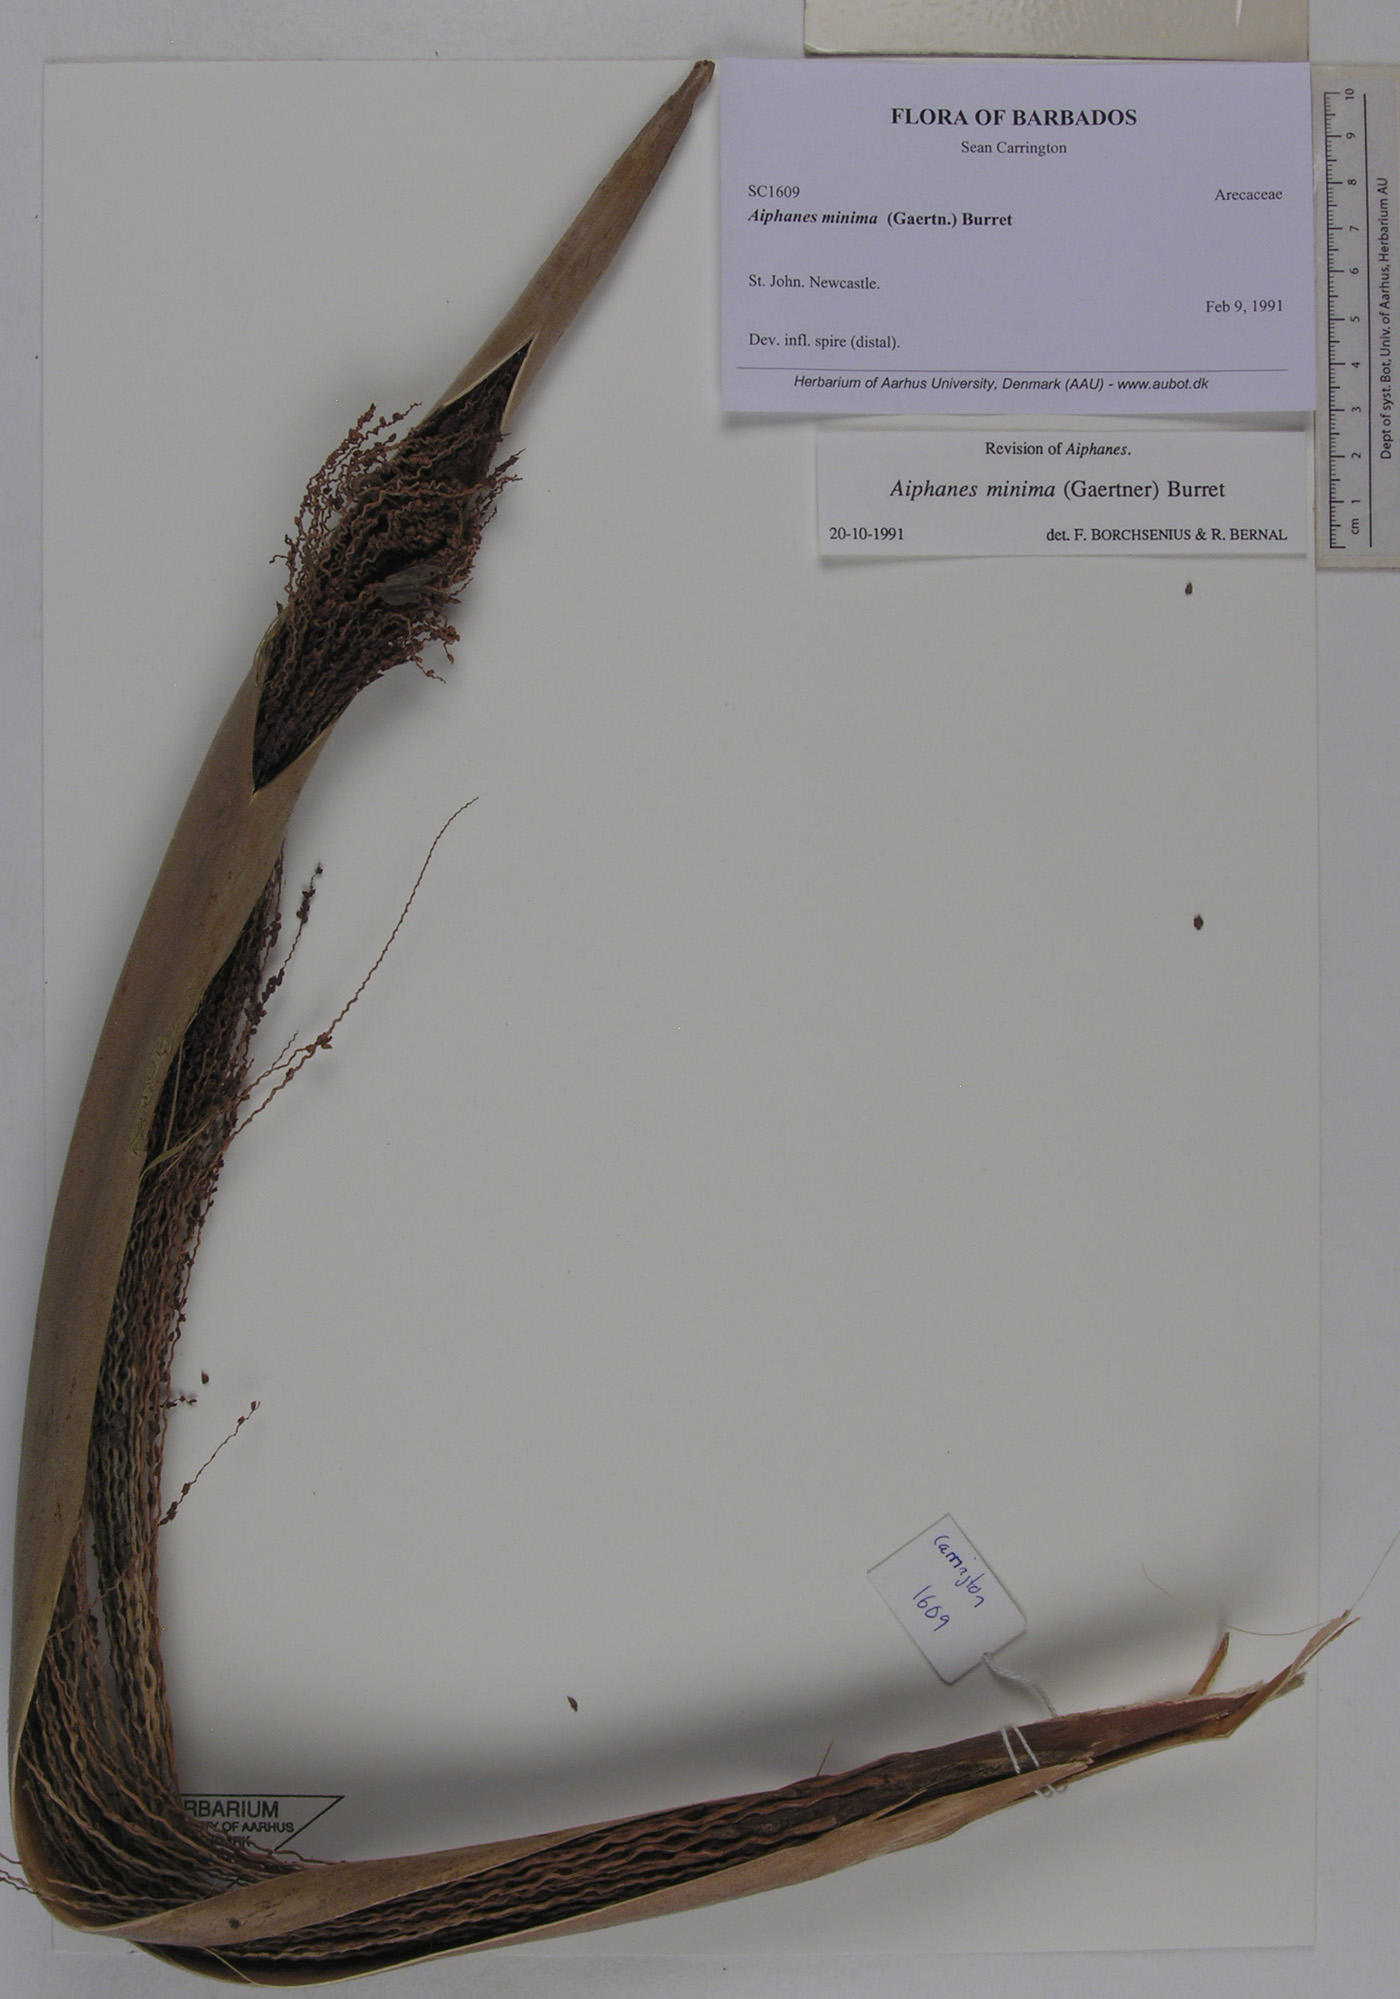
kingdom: Plantae
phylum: Tracheophyta
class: Liliopsida
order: Arecales
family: Arecaceae
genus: Aiphanes
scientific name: Aiphanes minima
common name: Grigri
